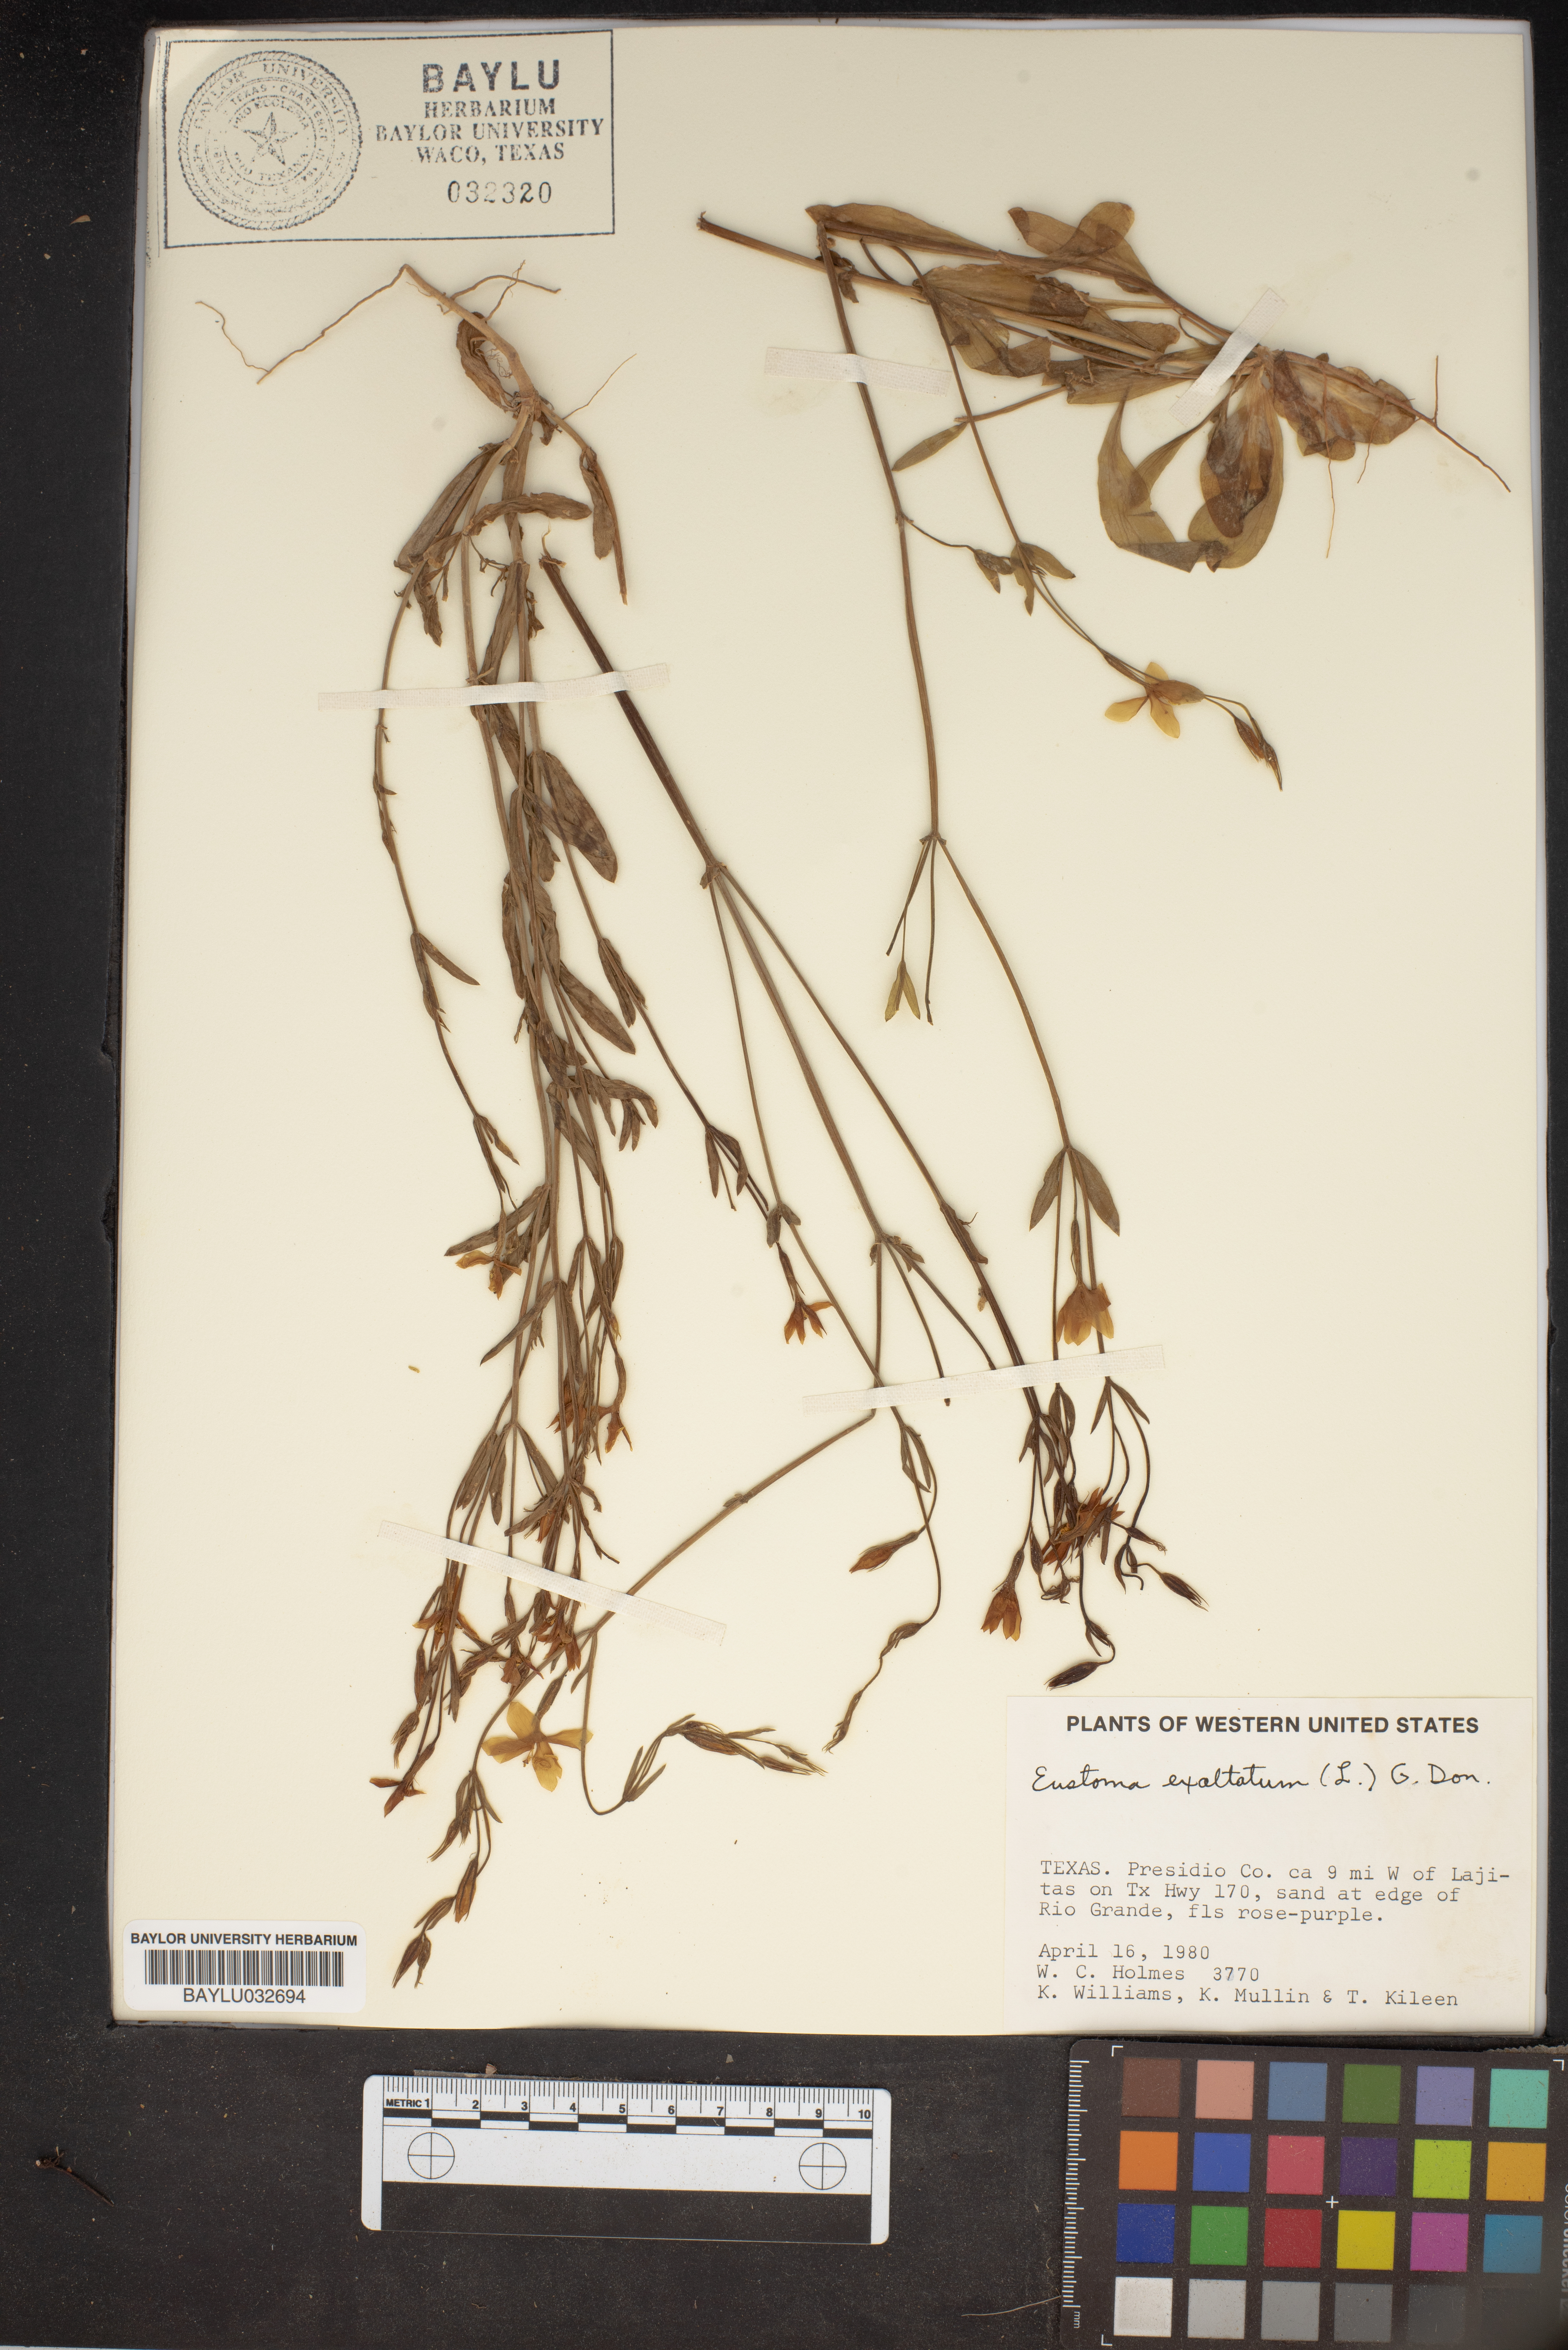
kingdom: Plantae
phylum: Tracheophyta
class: Magnoliopsida
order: Gentianales
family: Gentianaceae
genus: Eustoma
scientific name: Eustoma exaltatum
